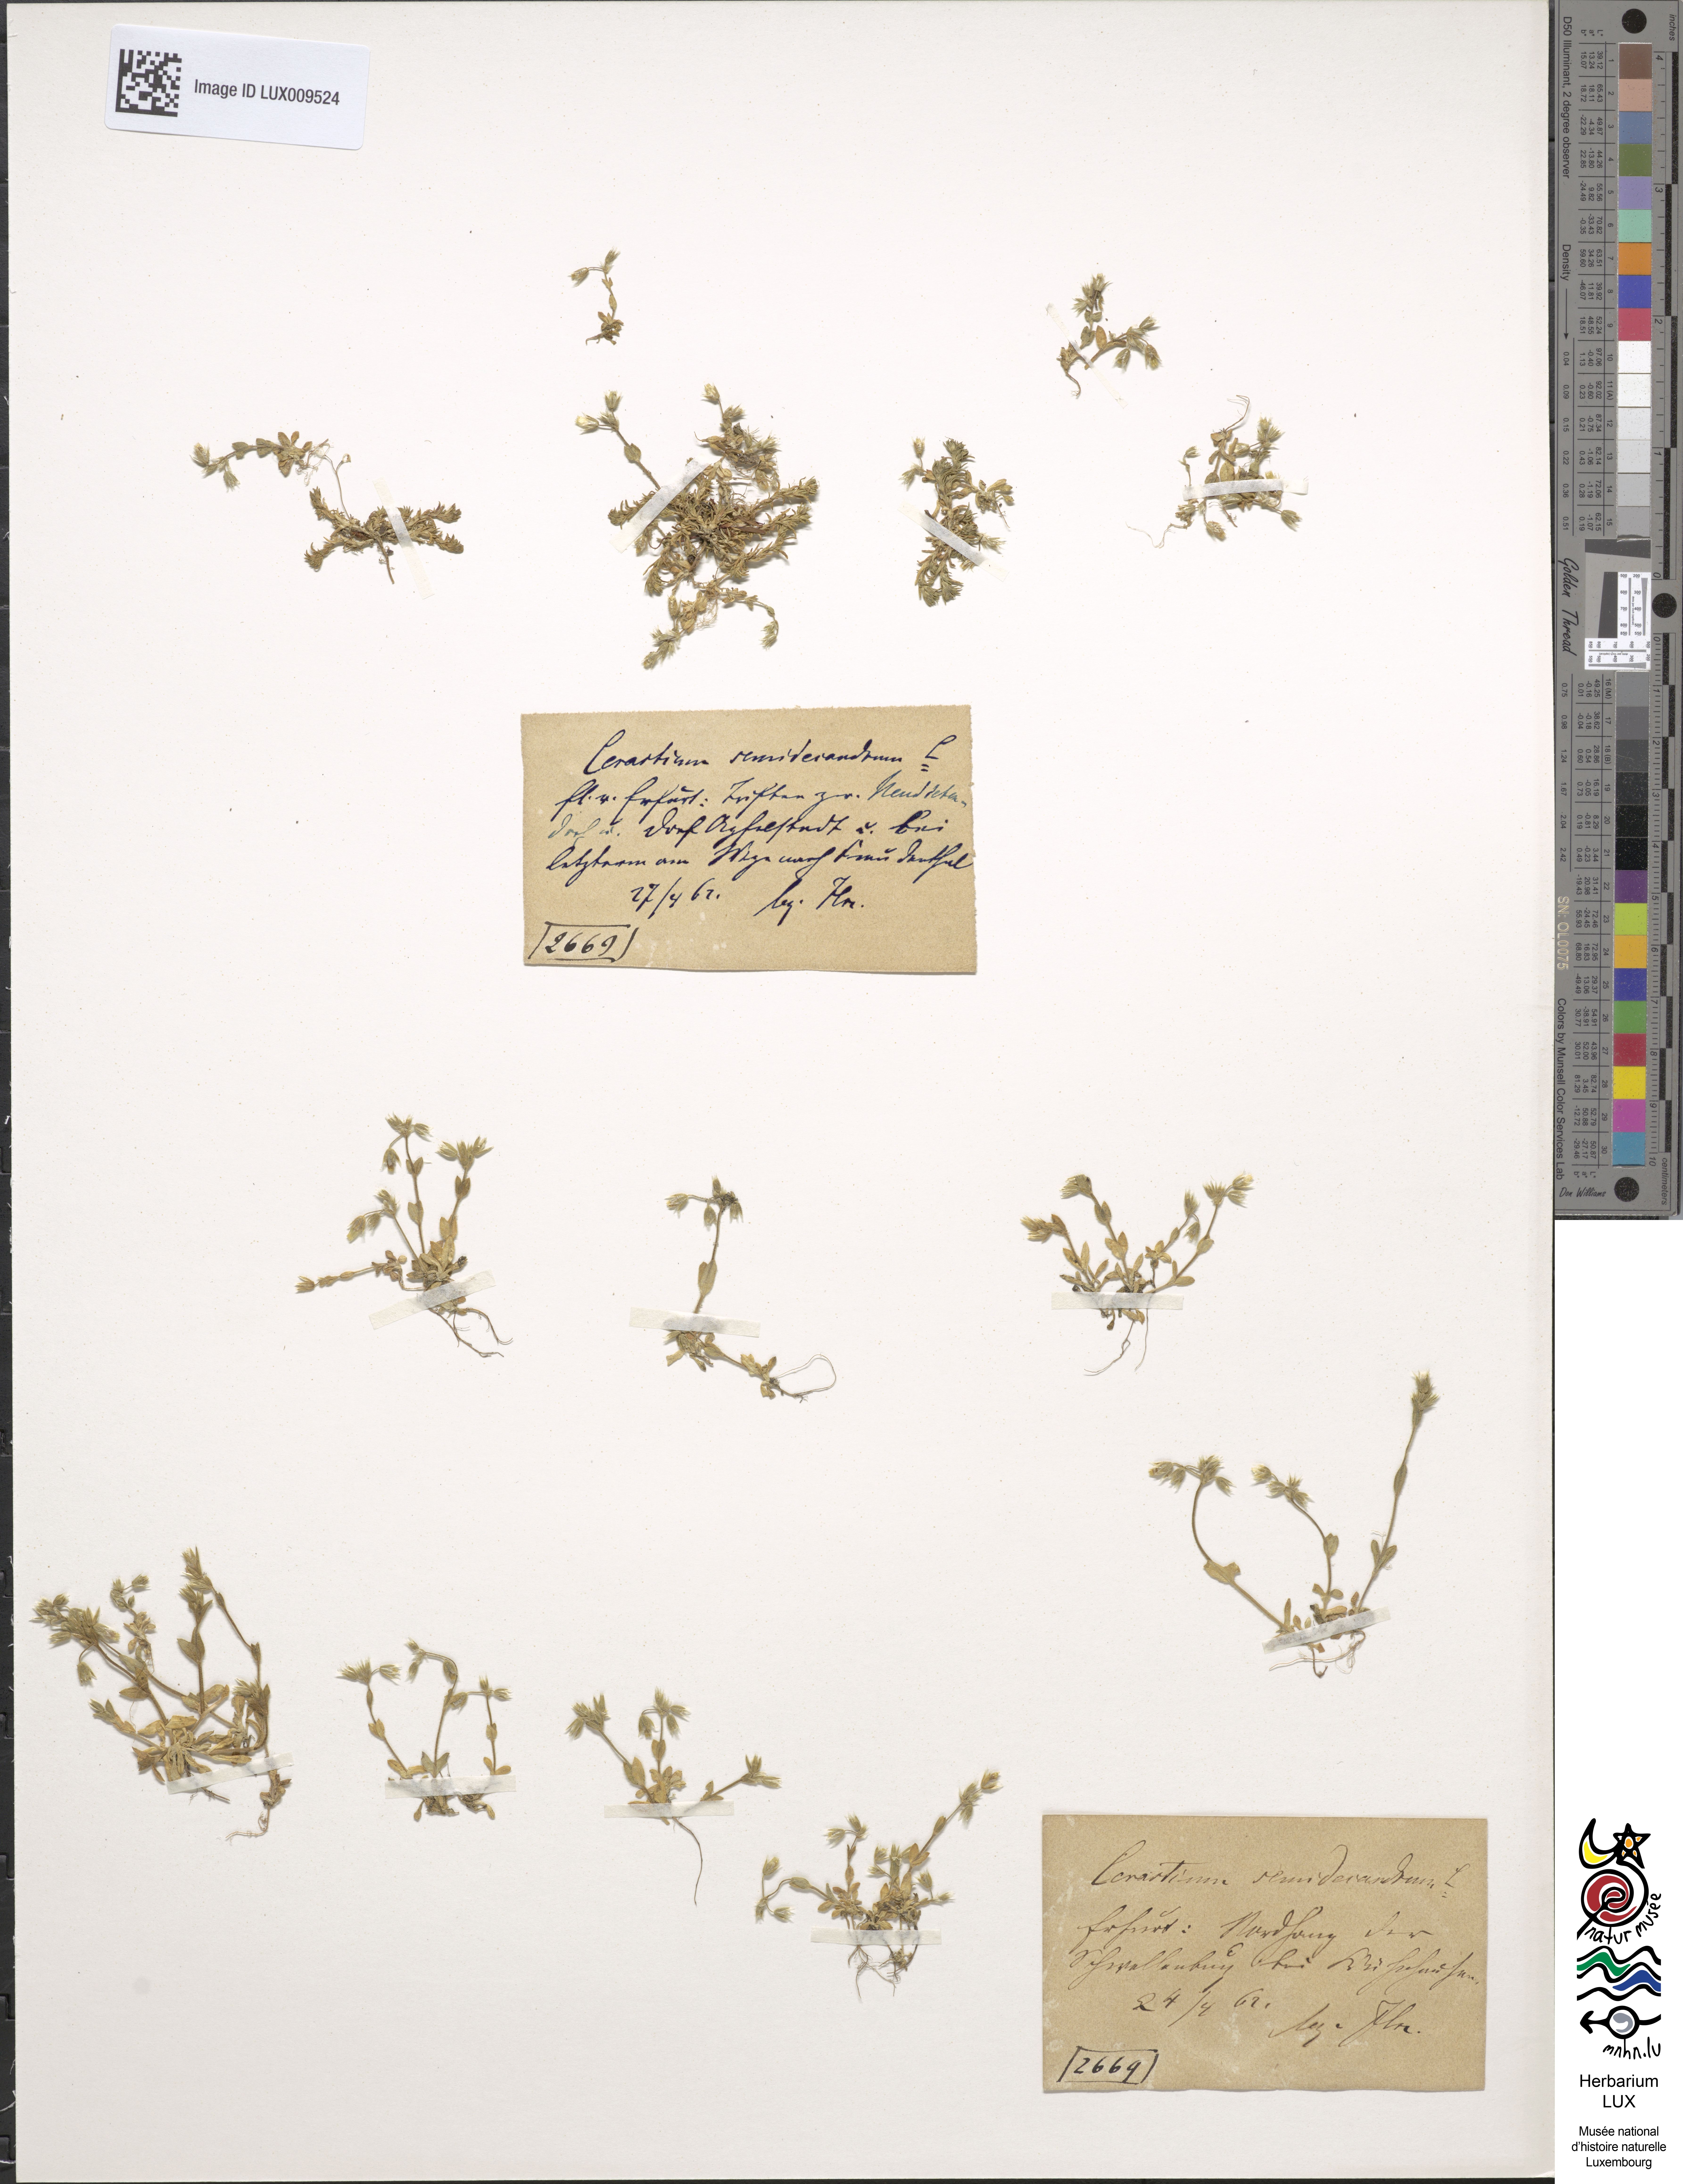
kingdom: Plantae
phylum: Tracheophyta
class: Magnoliopsida
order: Caryophyllales
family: Caryophyllaceae
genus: Cerastium
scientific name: Cerastium semidecandrum
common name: Little mouse-ear
